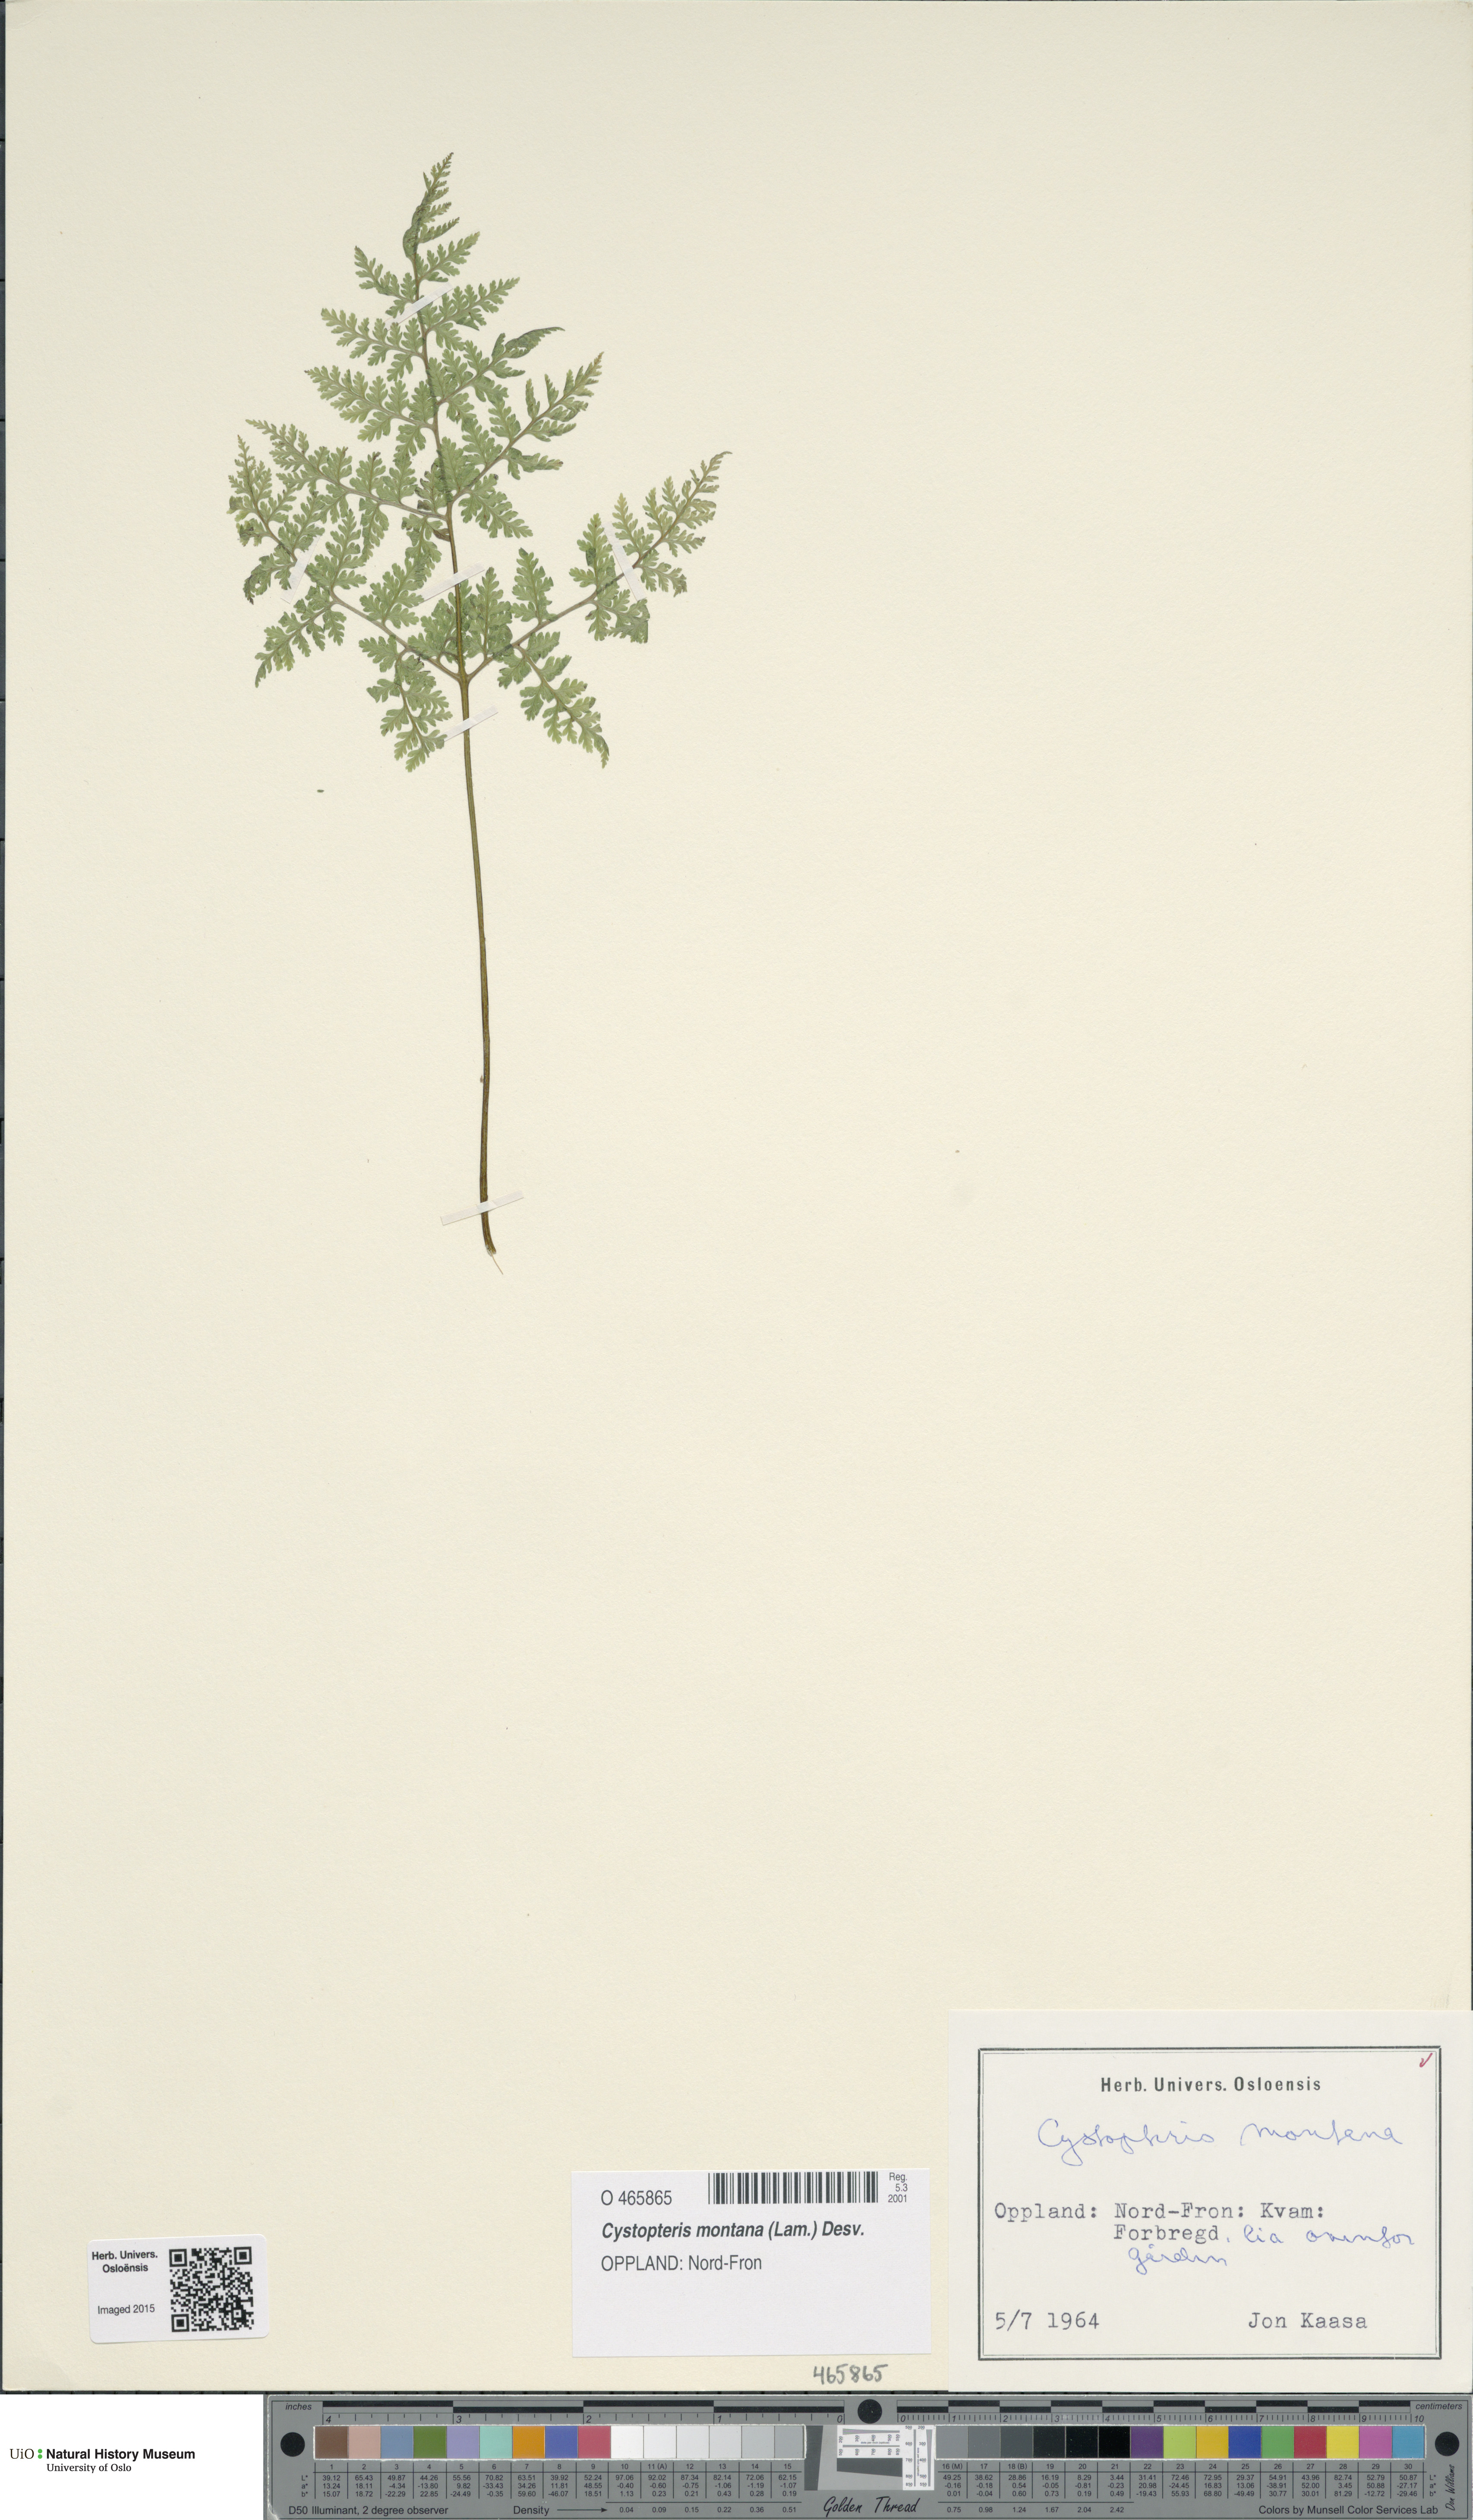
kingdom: Plantae
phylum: Tracheophyta
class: Polypodiopsida
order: Polypodiales
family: Cystopteridaceae
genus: Cystopteris
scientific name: Cystopteris montana
